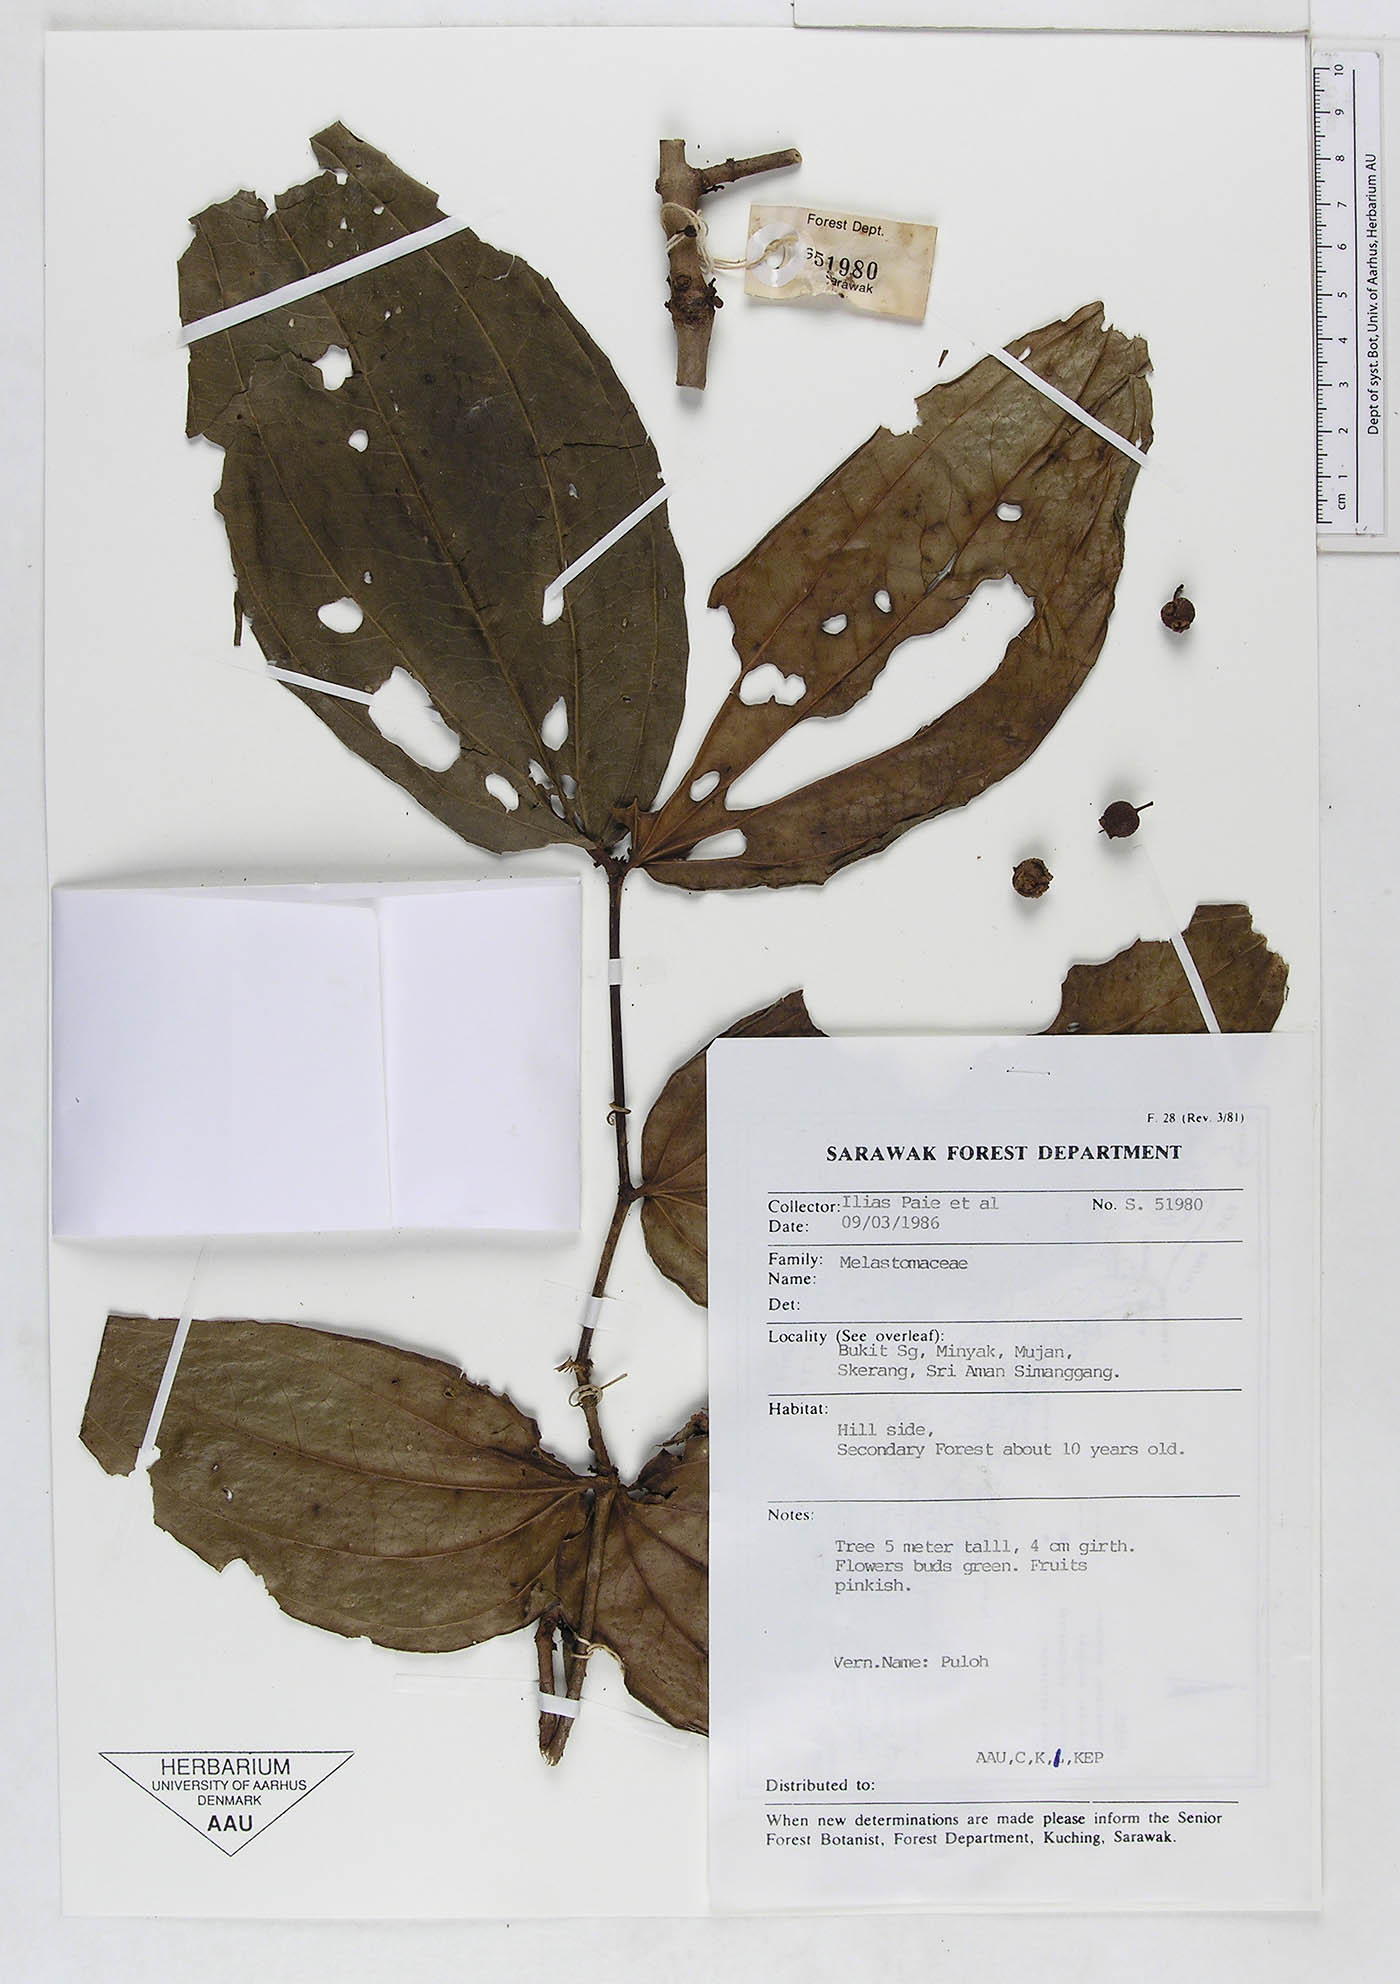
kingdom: Plantae
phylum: Tracheophyta
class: Magnoliopsida
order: Myrtales
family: Melastomataceae
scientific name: Melastomataceae
